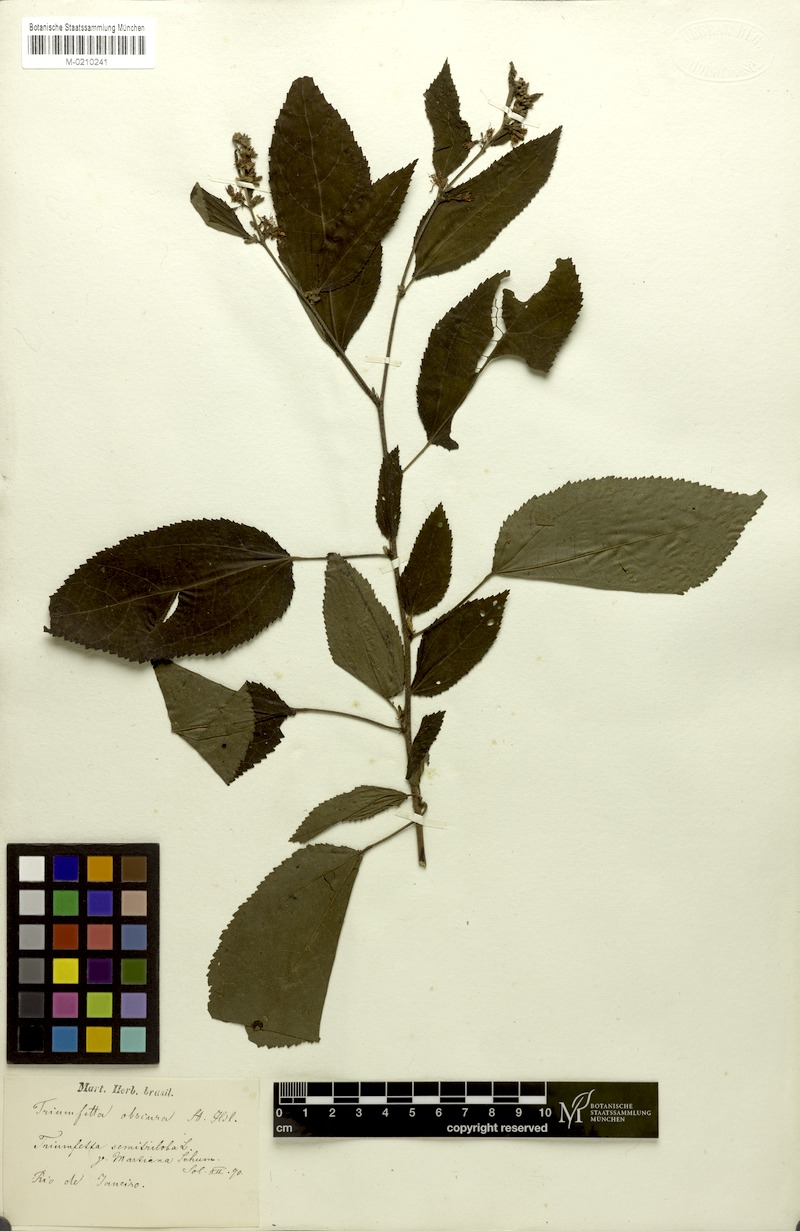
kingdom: Plantae
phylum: Tracheophyta
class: Magnoliopsida
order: Malvales
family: Malvaceae
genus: Triumfetta
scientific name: Triumfetta semitriloba
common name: Sacramento burbark
